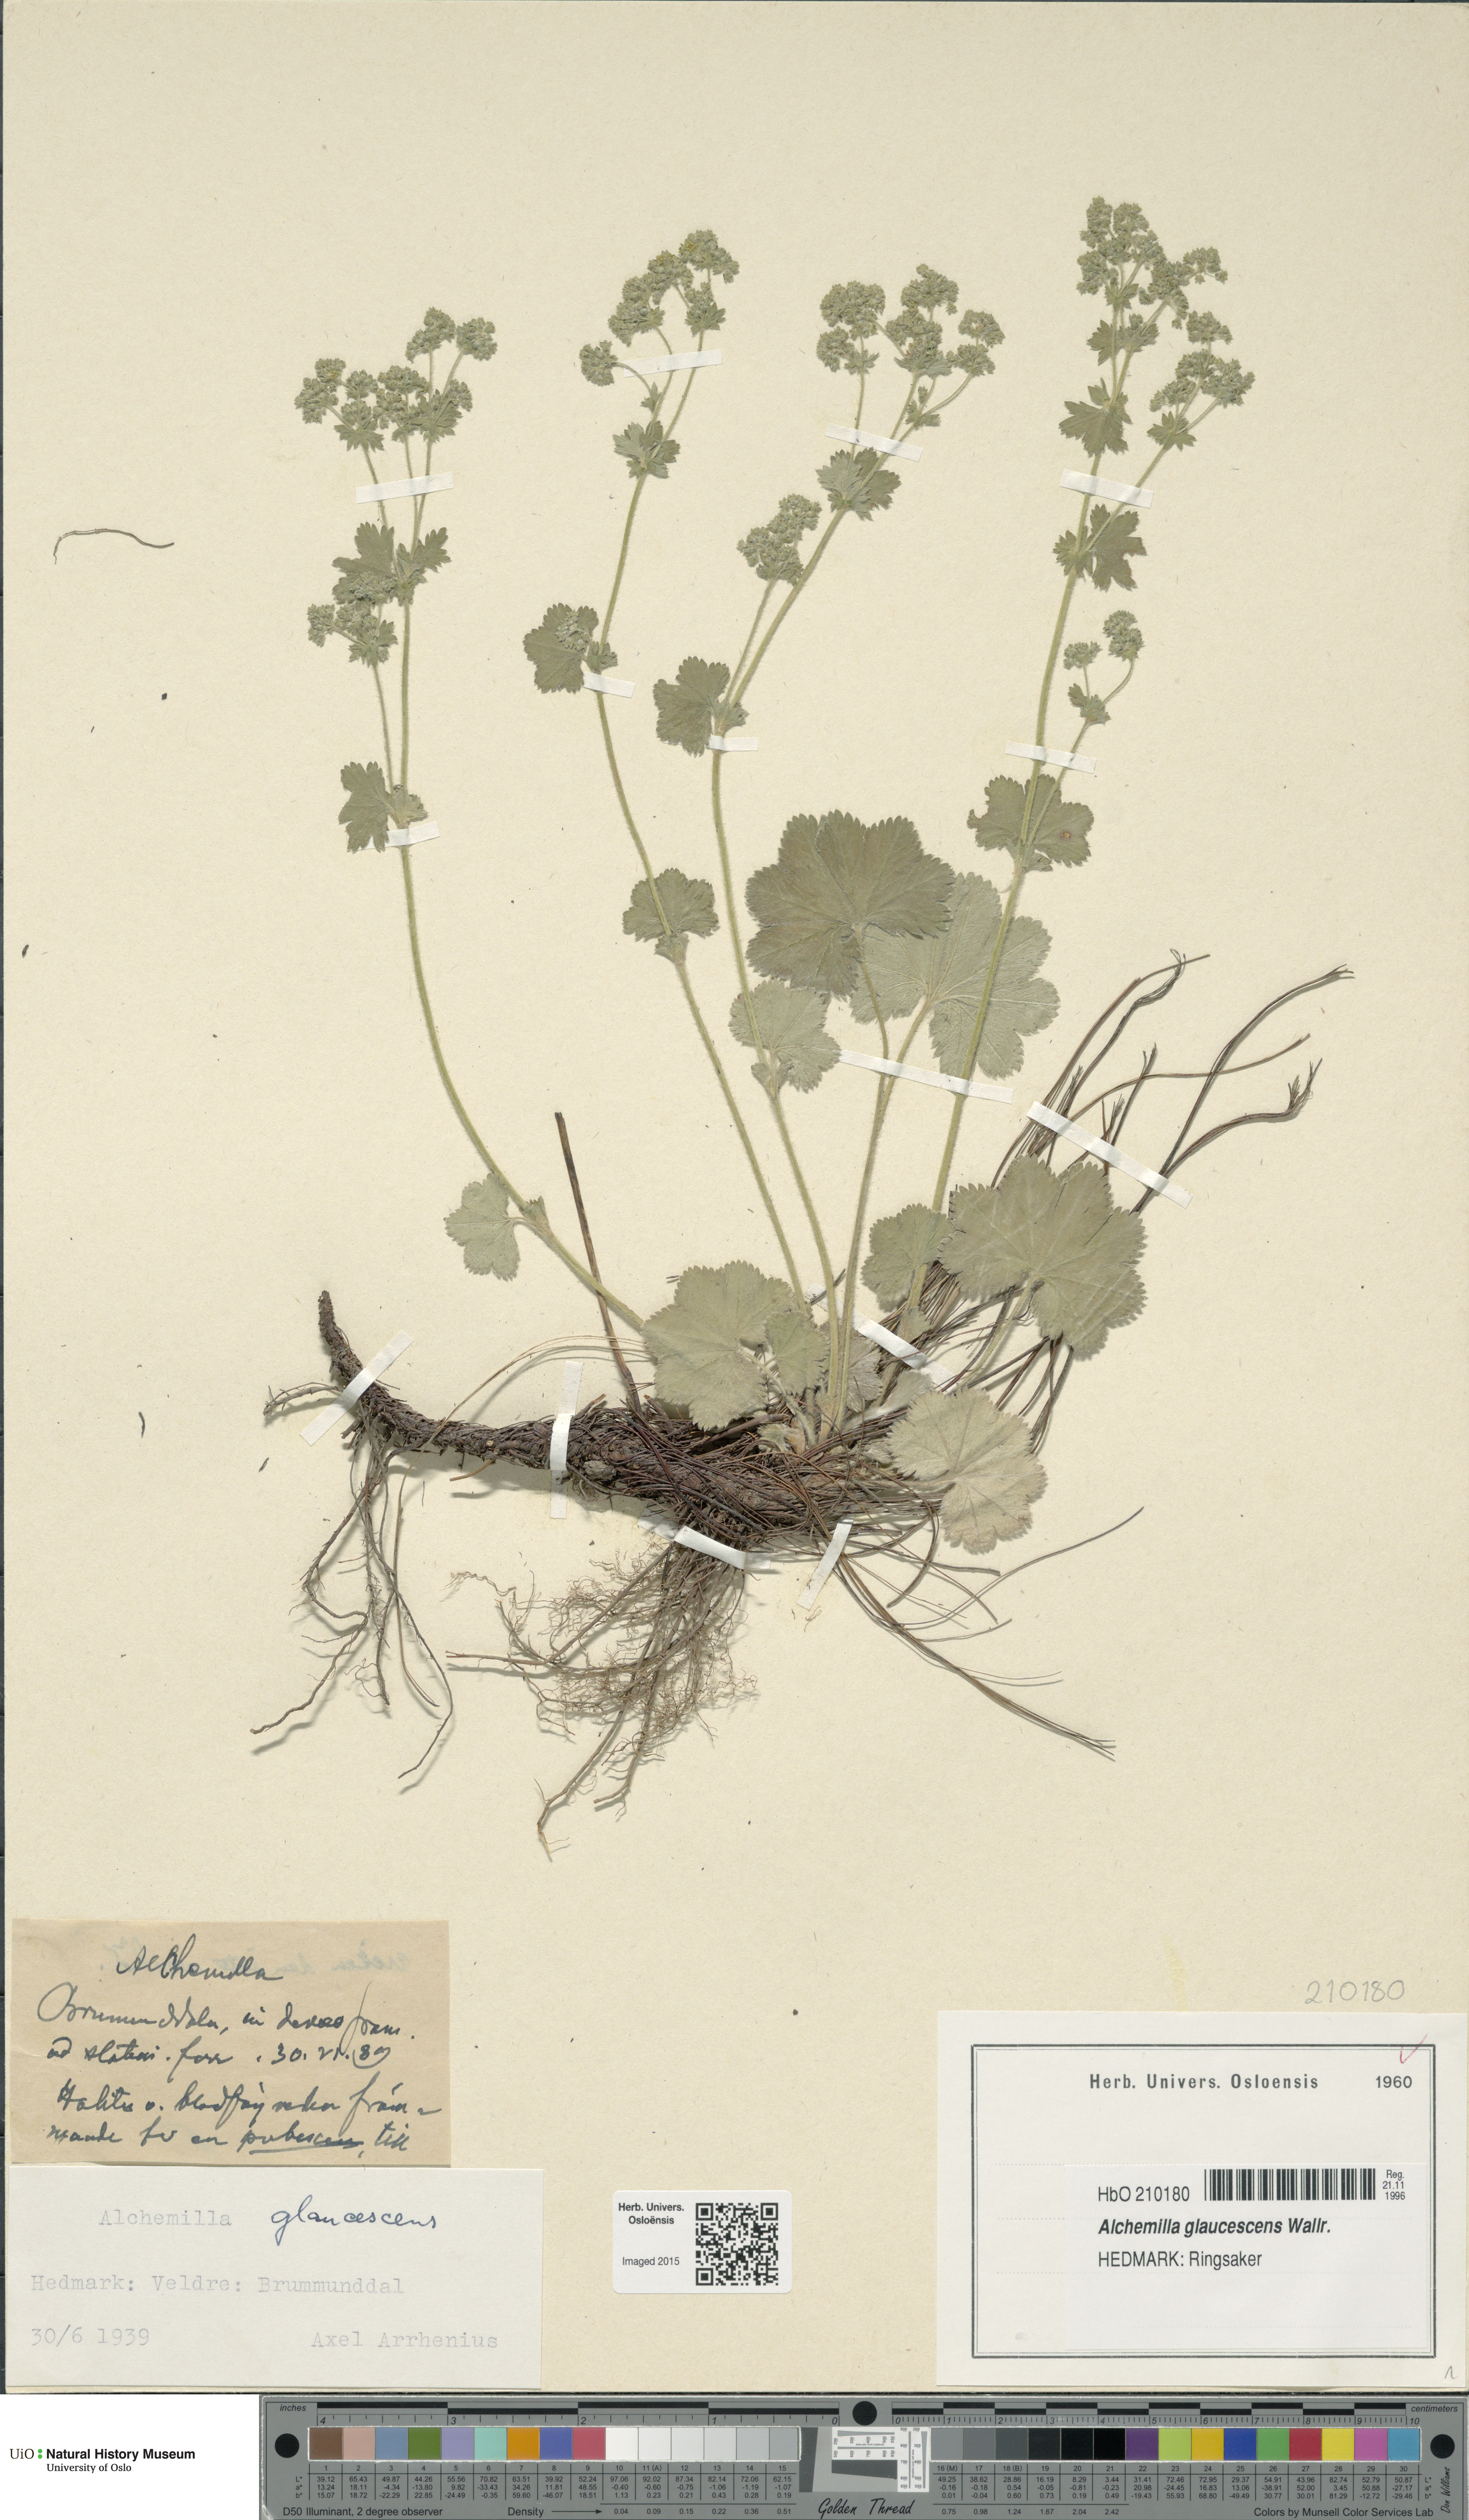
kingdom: Plantae
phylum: Tracheophyta
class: Magnoliopsida
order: Rosales
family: Rosaceae
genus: Alchemilla
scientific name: Alchemilla glaucescens
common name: Silky lady's mantle
